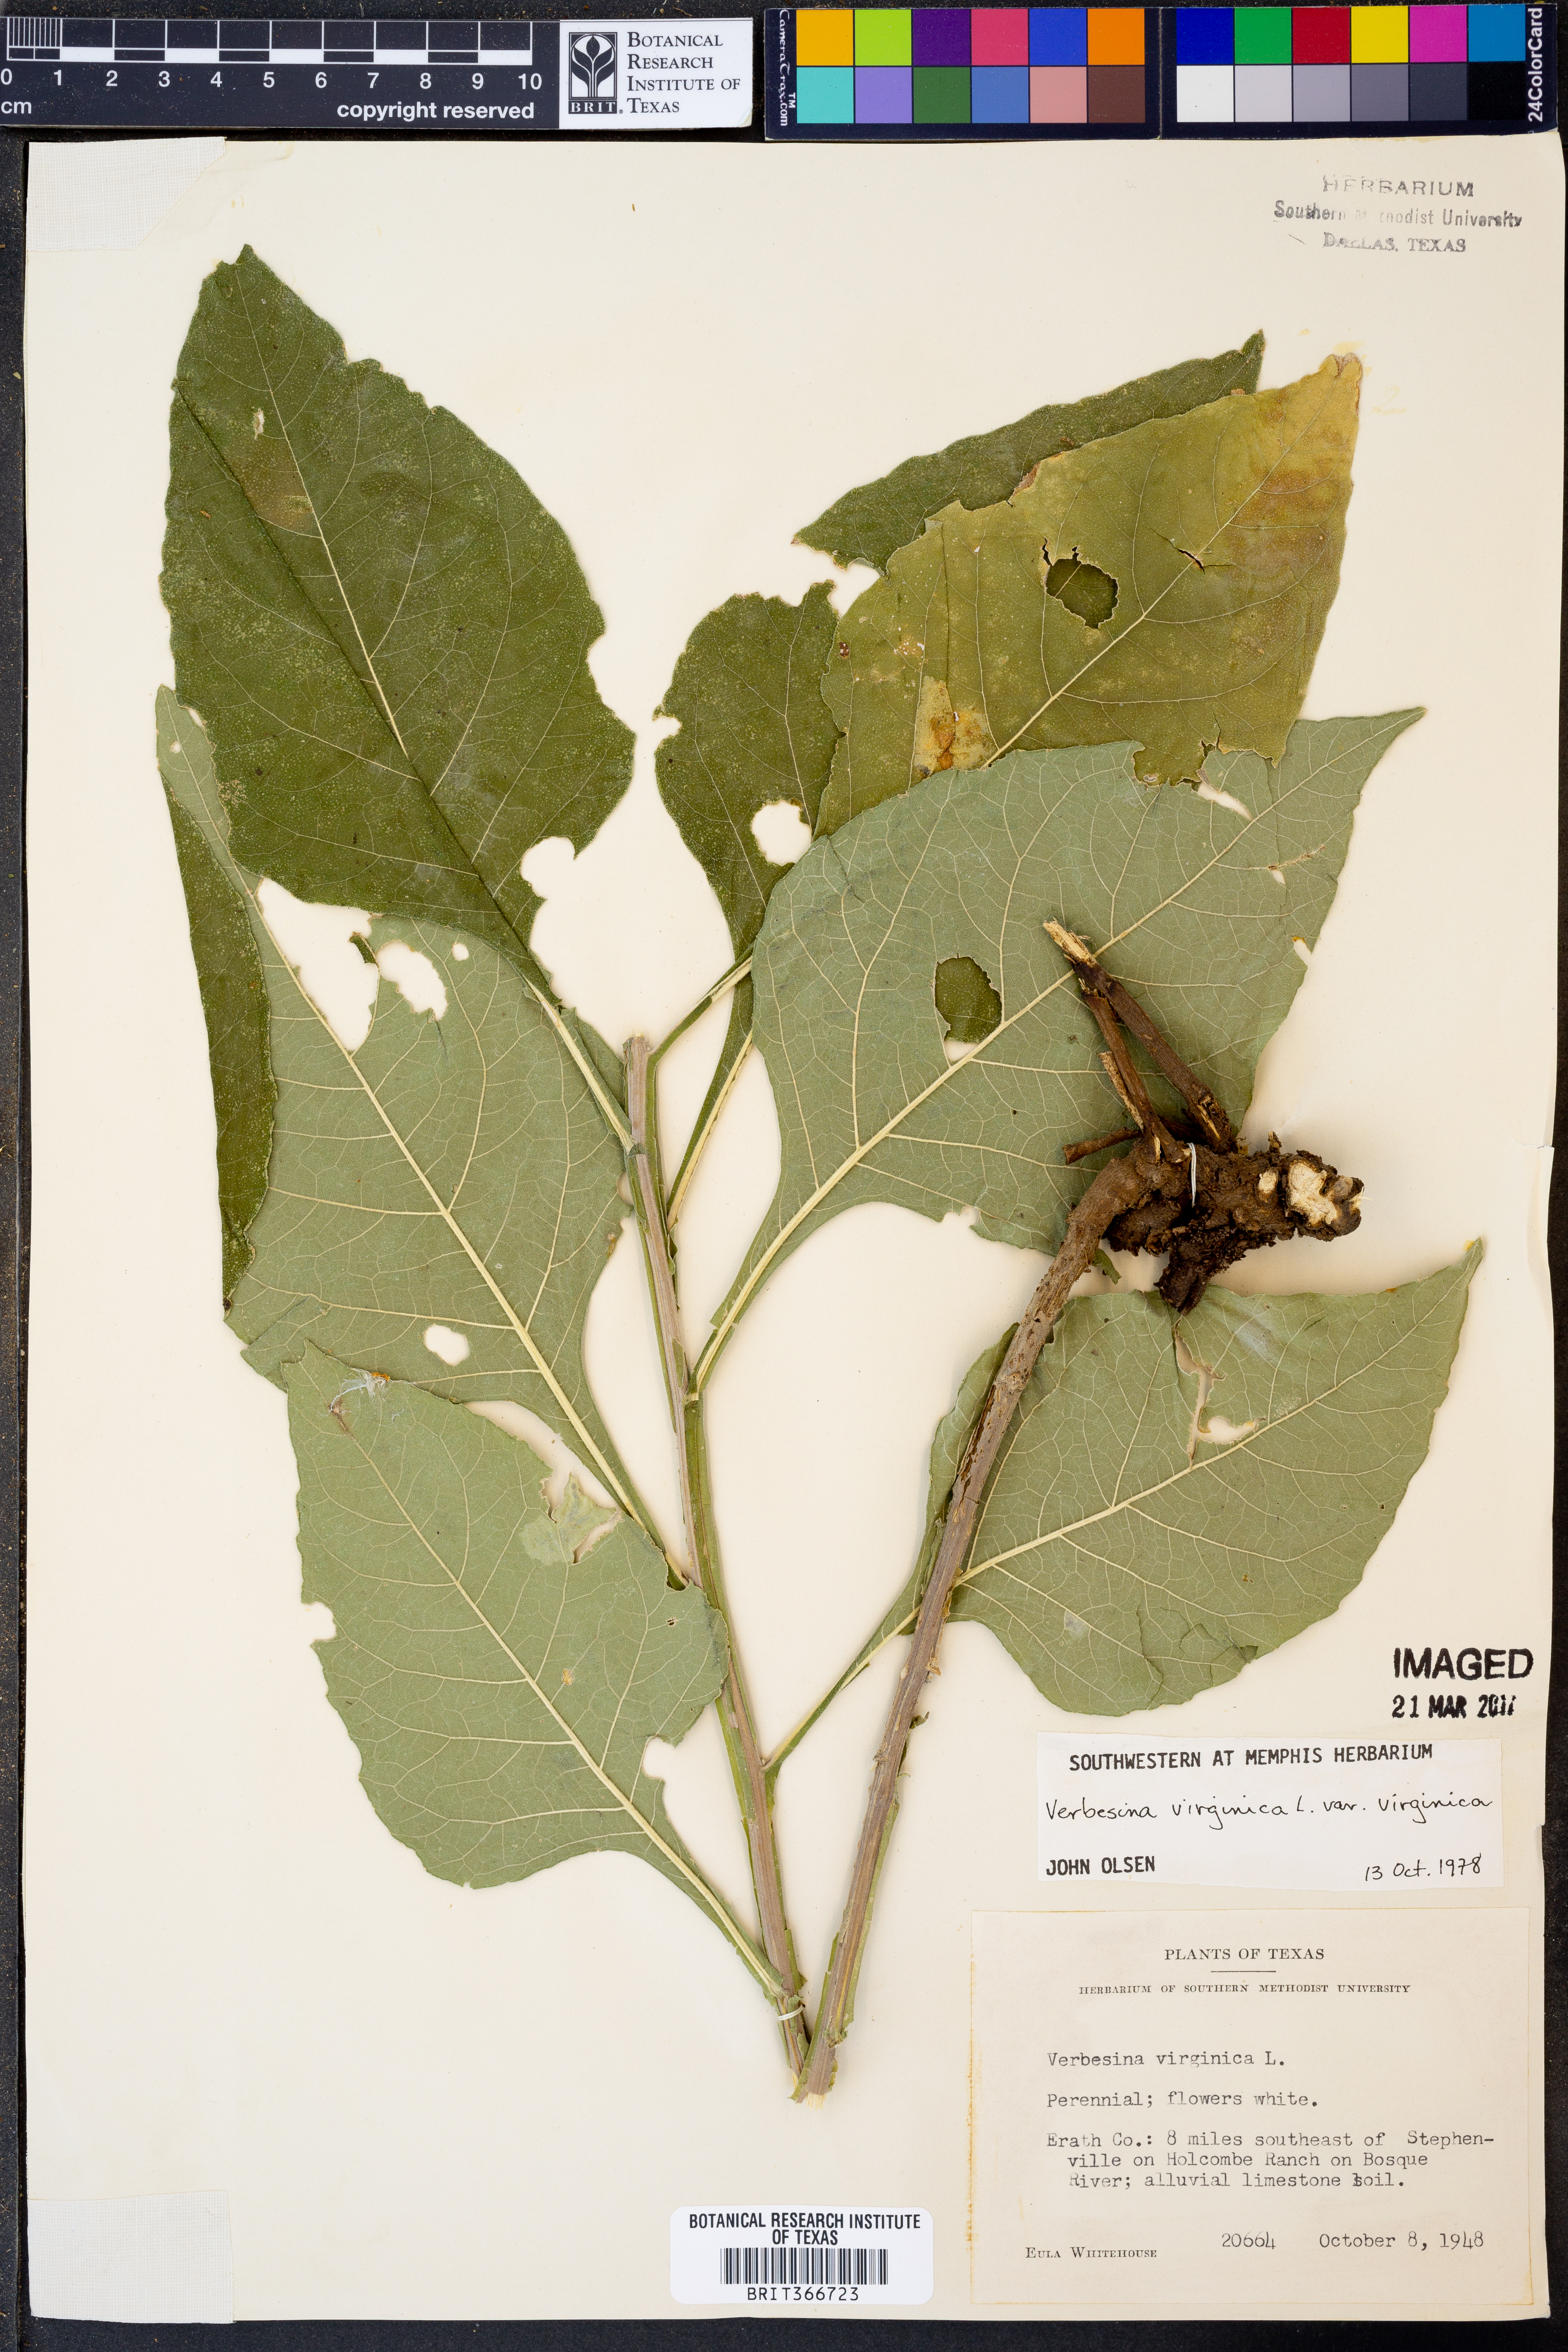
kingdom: Plantae
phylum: Tracheophyta
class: Magnoliopsida
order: Asterales
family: Asteraceae
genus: Verbesina
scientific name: Verbesina virginica
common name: Frostweed
